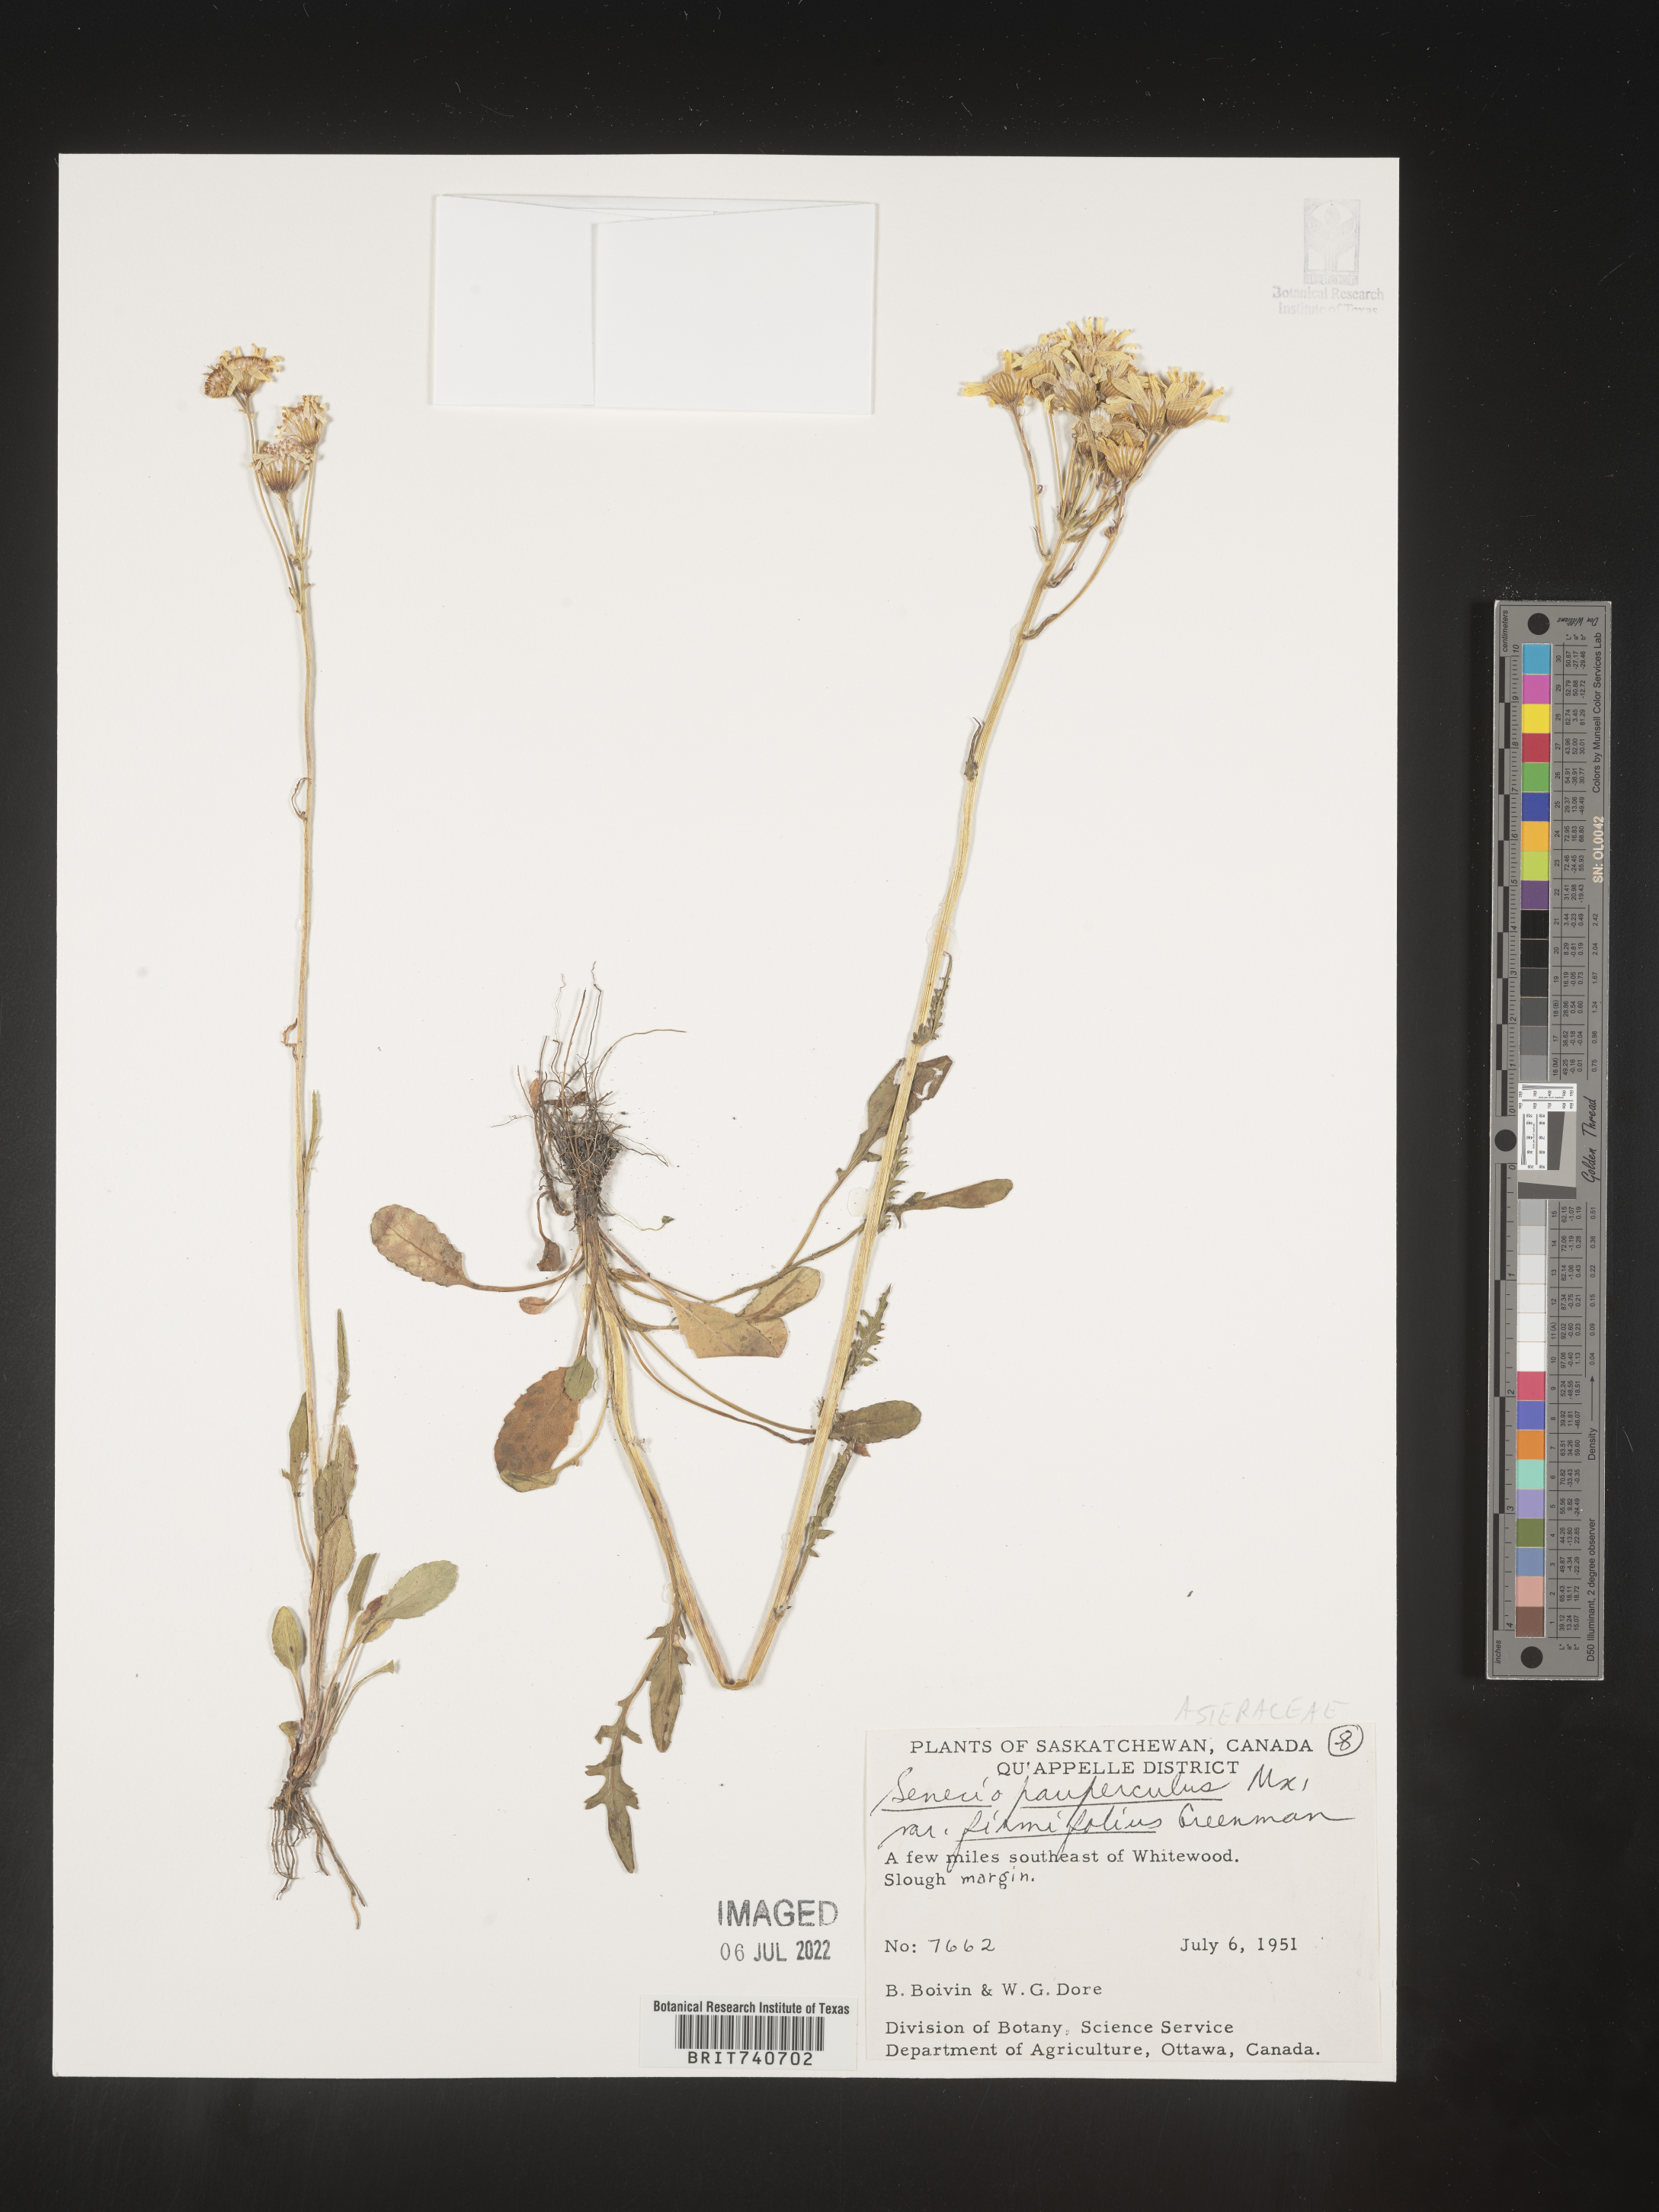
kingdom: Plantae
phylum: Tracheophyta
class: Magnoliopsida
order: Asterales
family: Asteraceae
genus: Packera
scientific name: Packera paupercula
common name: Balsam groundsel
